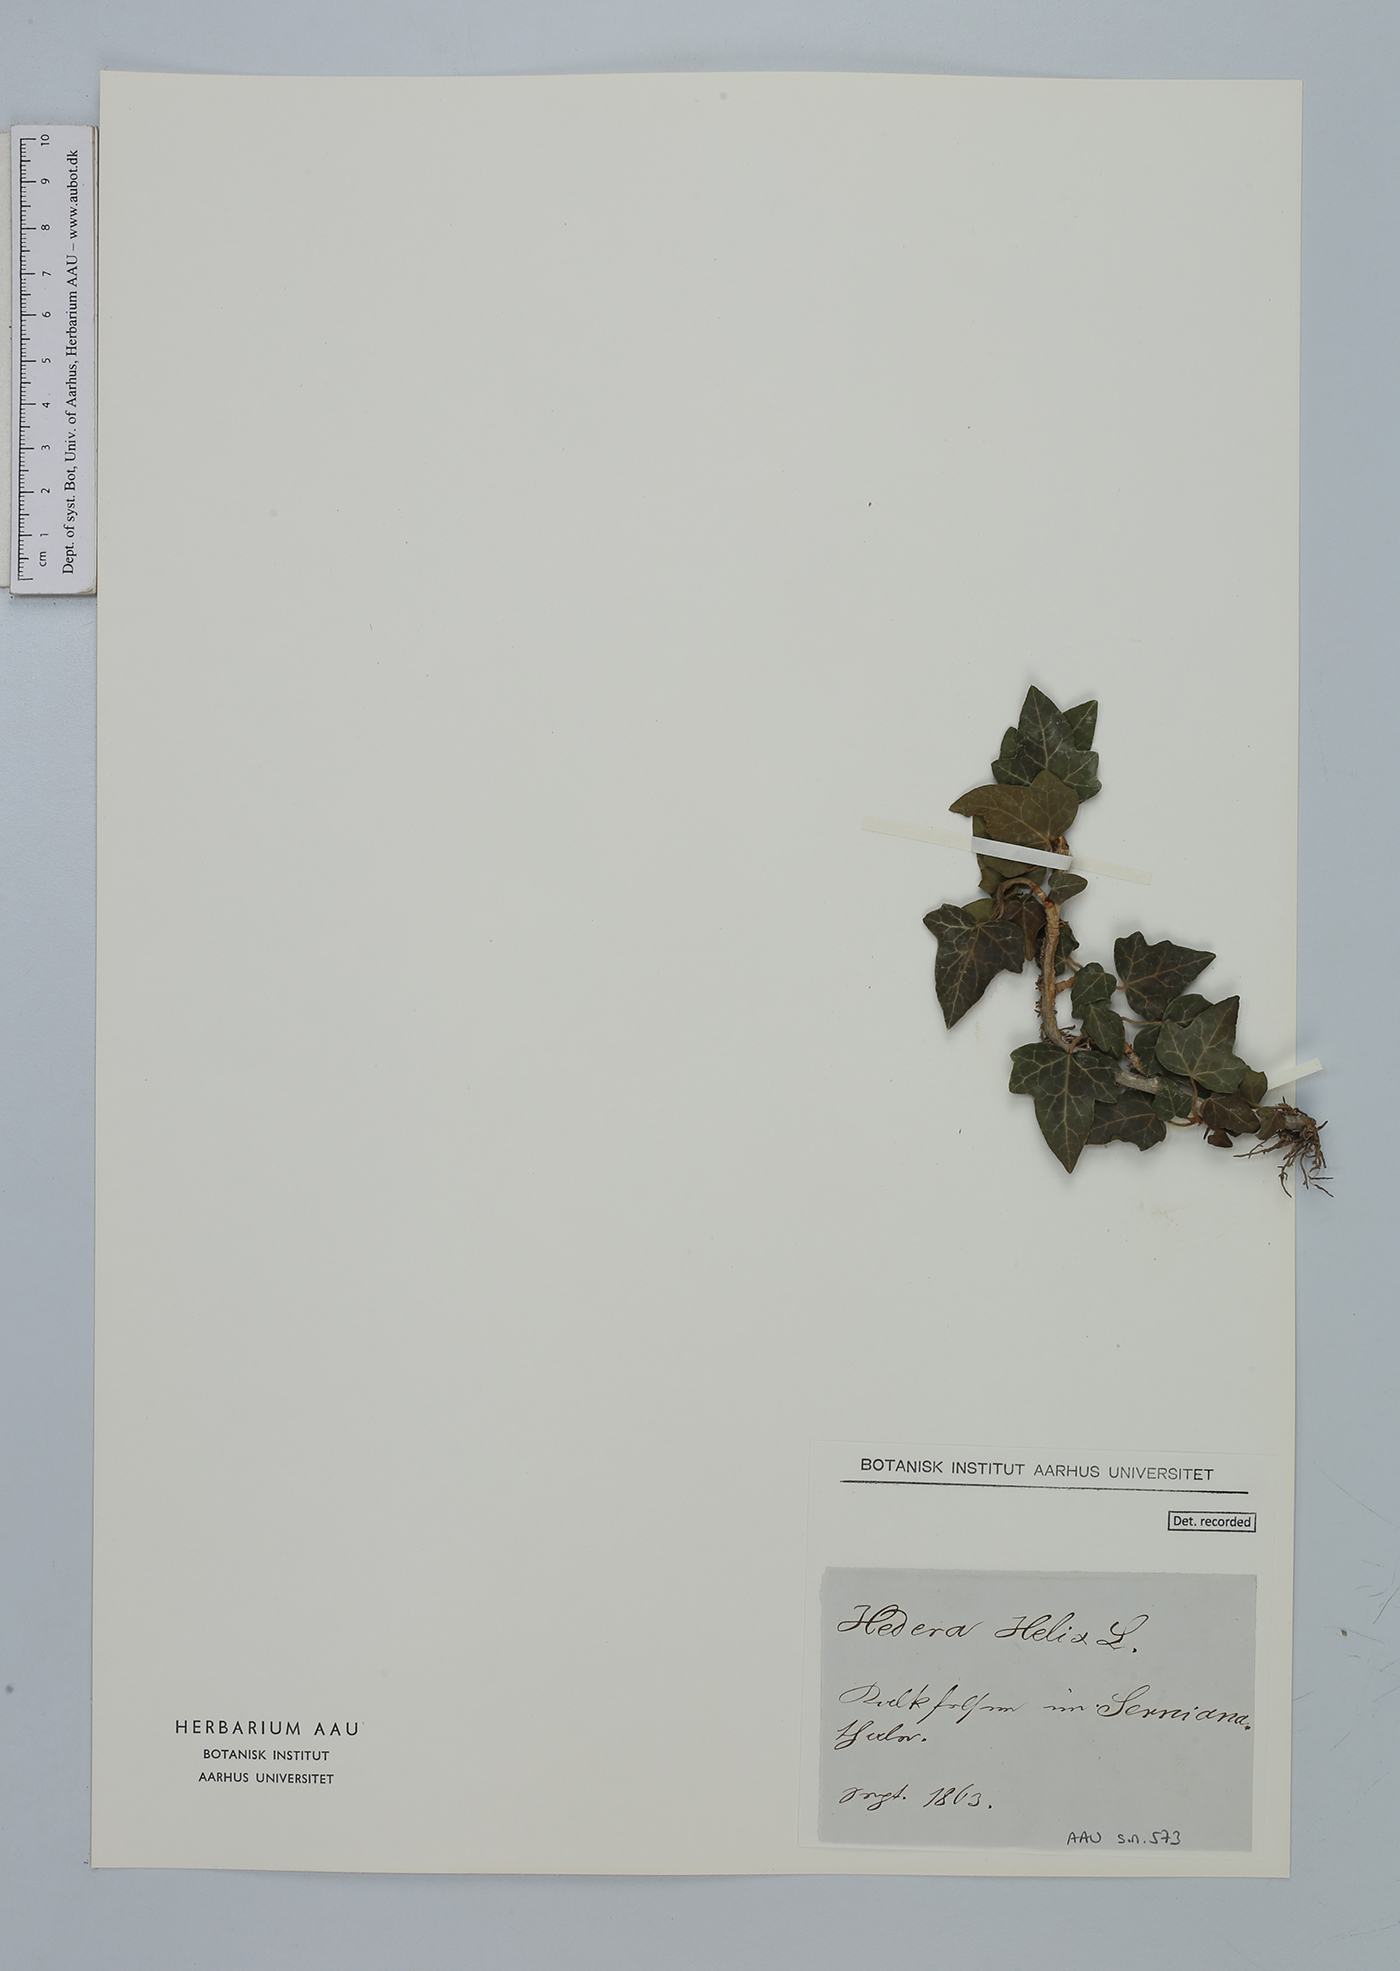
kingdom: Plantae
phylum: Tracheophyta
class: Magnoliopsida
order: Apiales
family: Araliaceae
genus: Hedera
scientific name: Hedera helix
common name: Ivy
